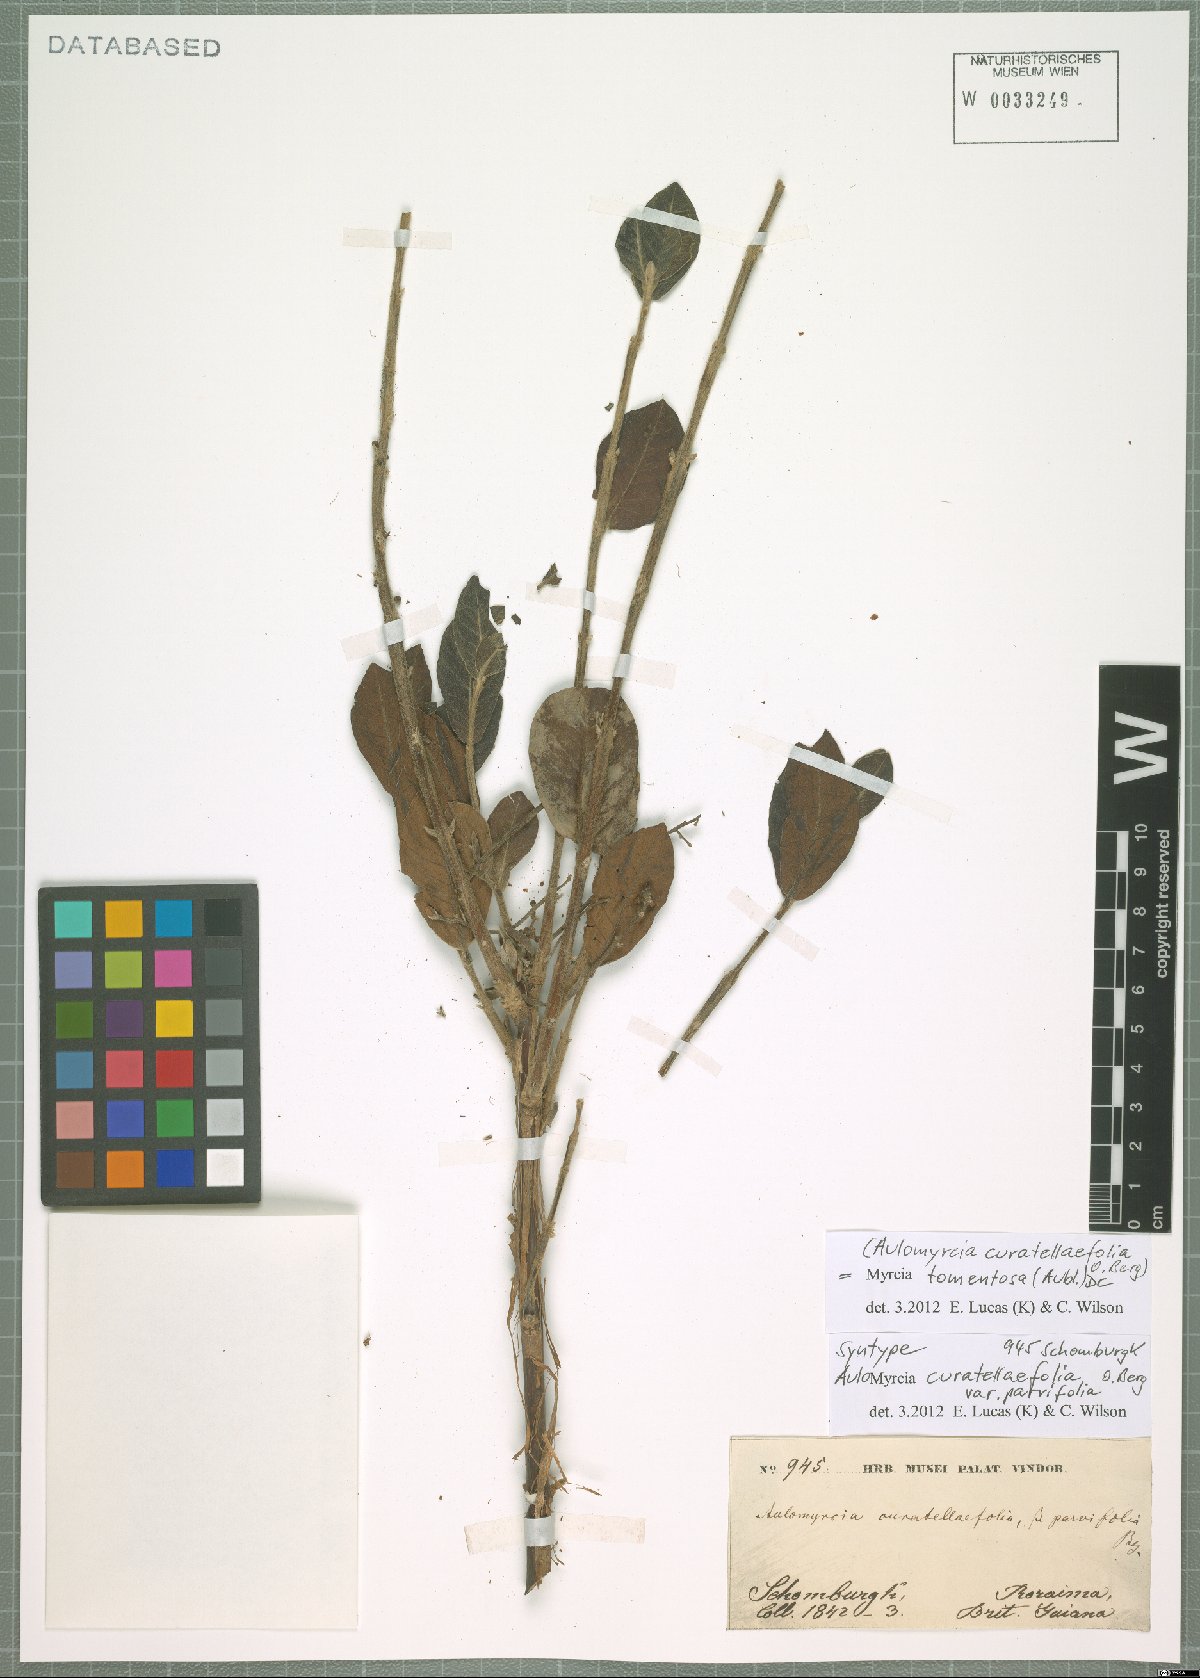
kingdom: Plantae
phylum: Tracheophyta
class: Magnoliopsida
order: Myrtales
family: Myrtaceae
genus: Myrcia
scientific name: Myrcia tomentosa
